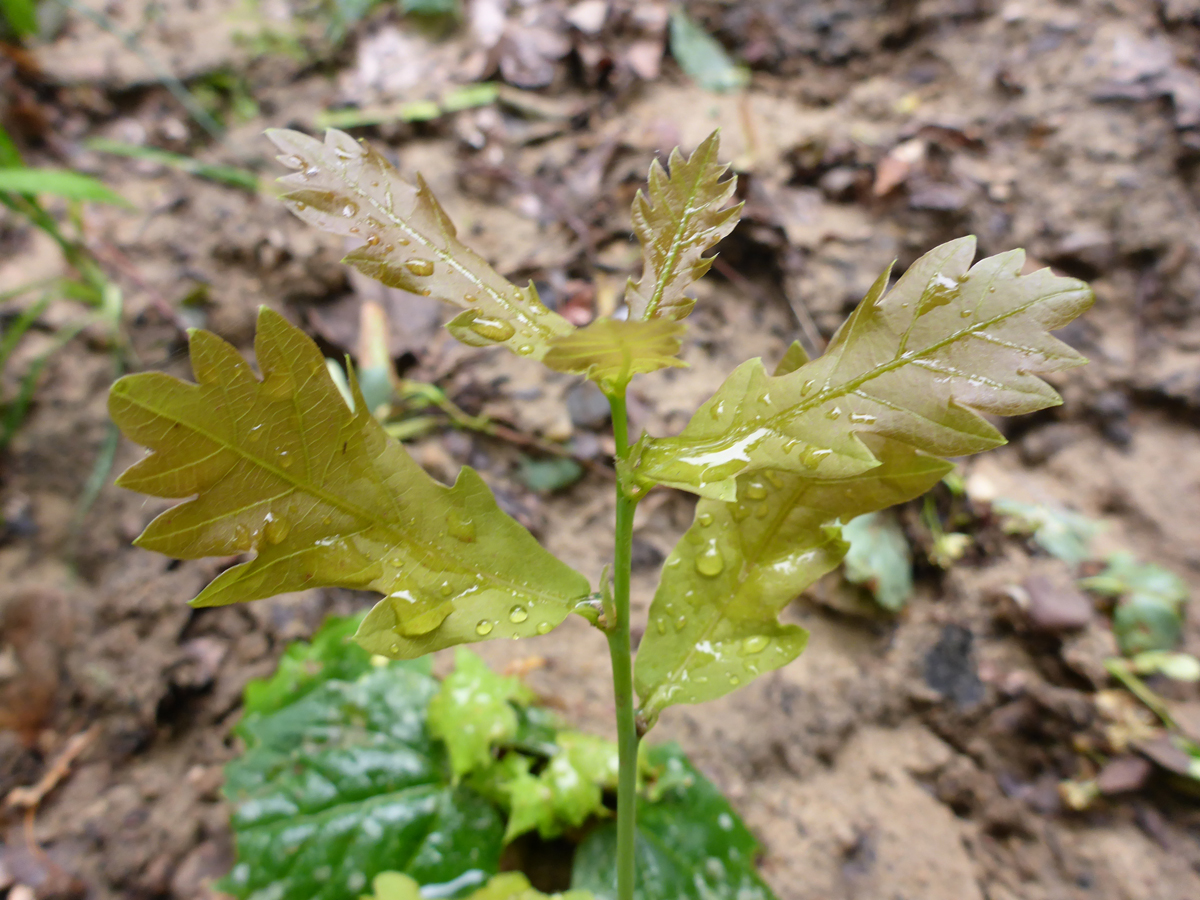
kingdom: Plantae
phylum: Tracheophyta
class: Magnoliopsida
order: Fagales
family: Fagaceae
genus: Quercus
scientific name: Quercus robur
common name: Pedunculate oak
